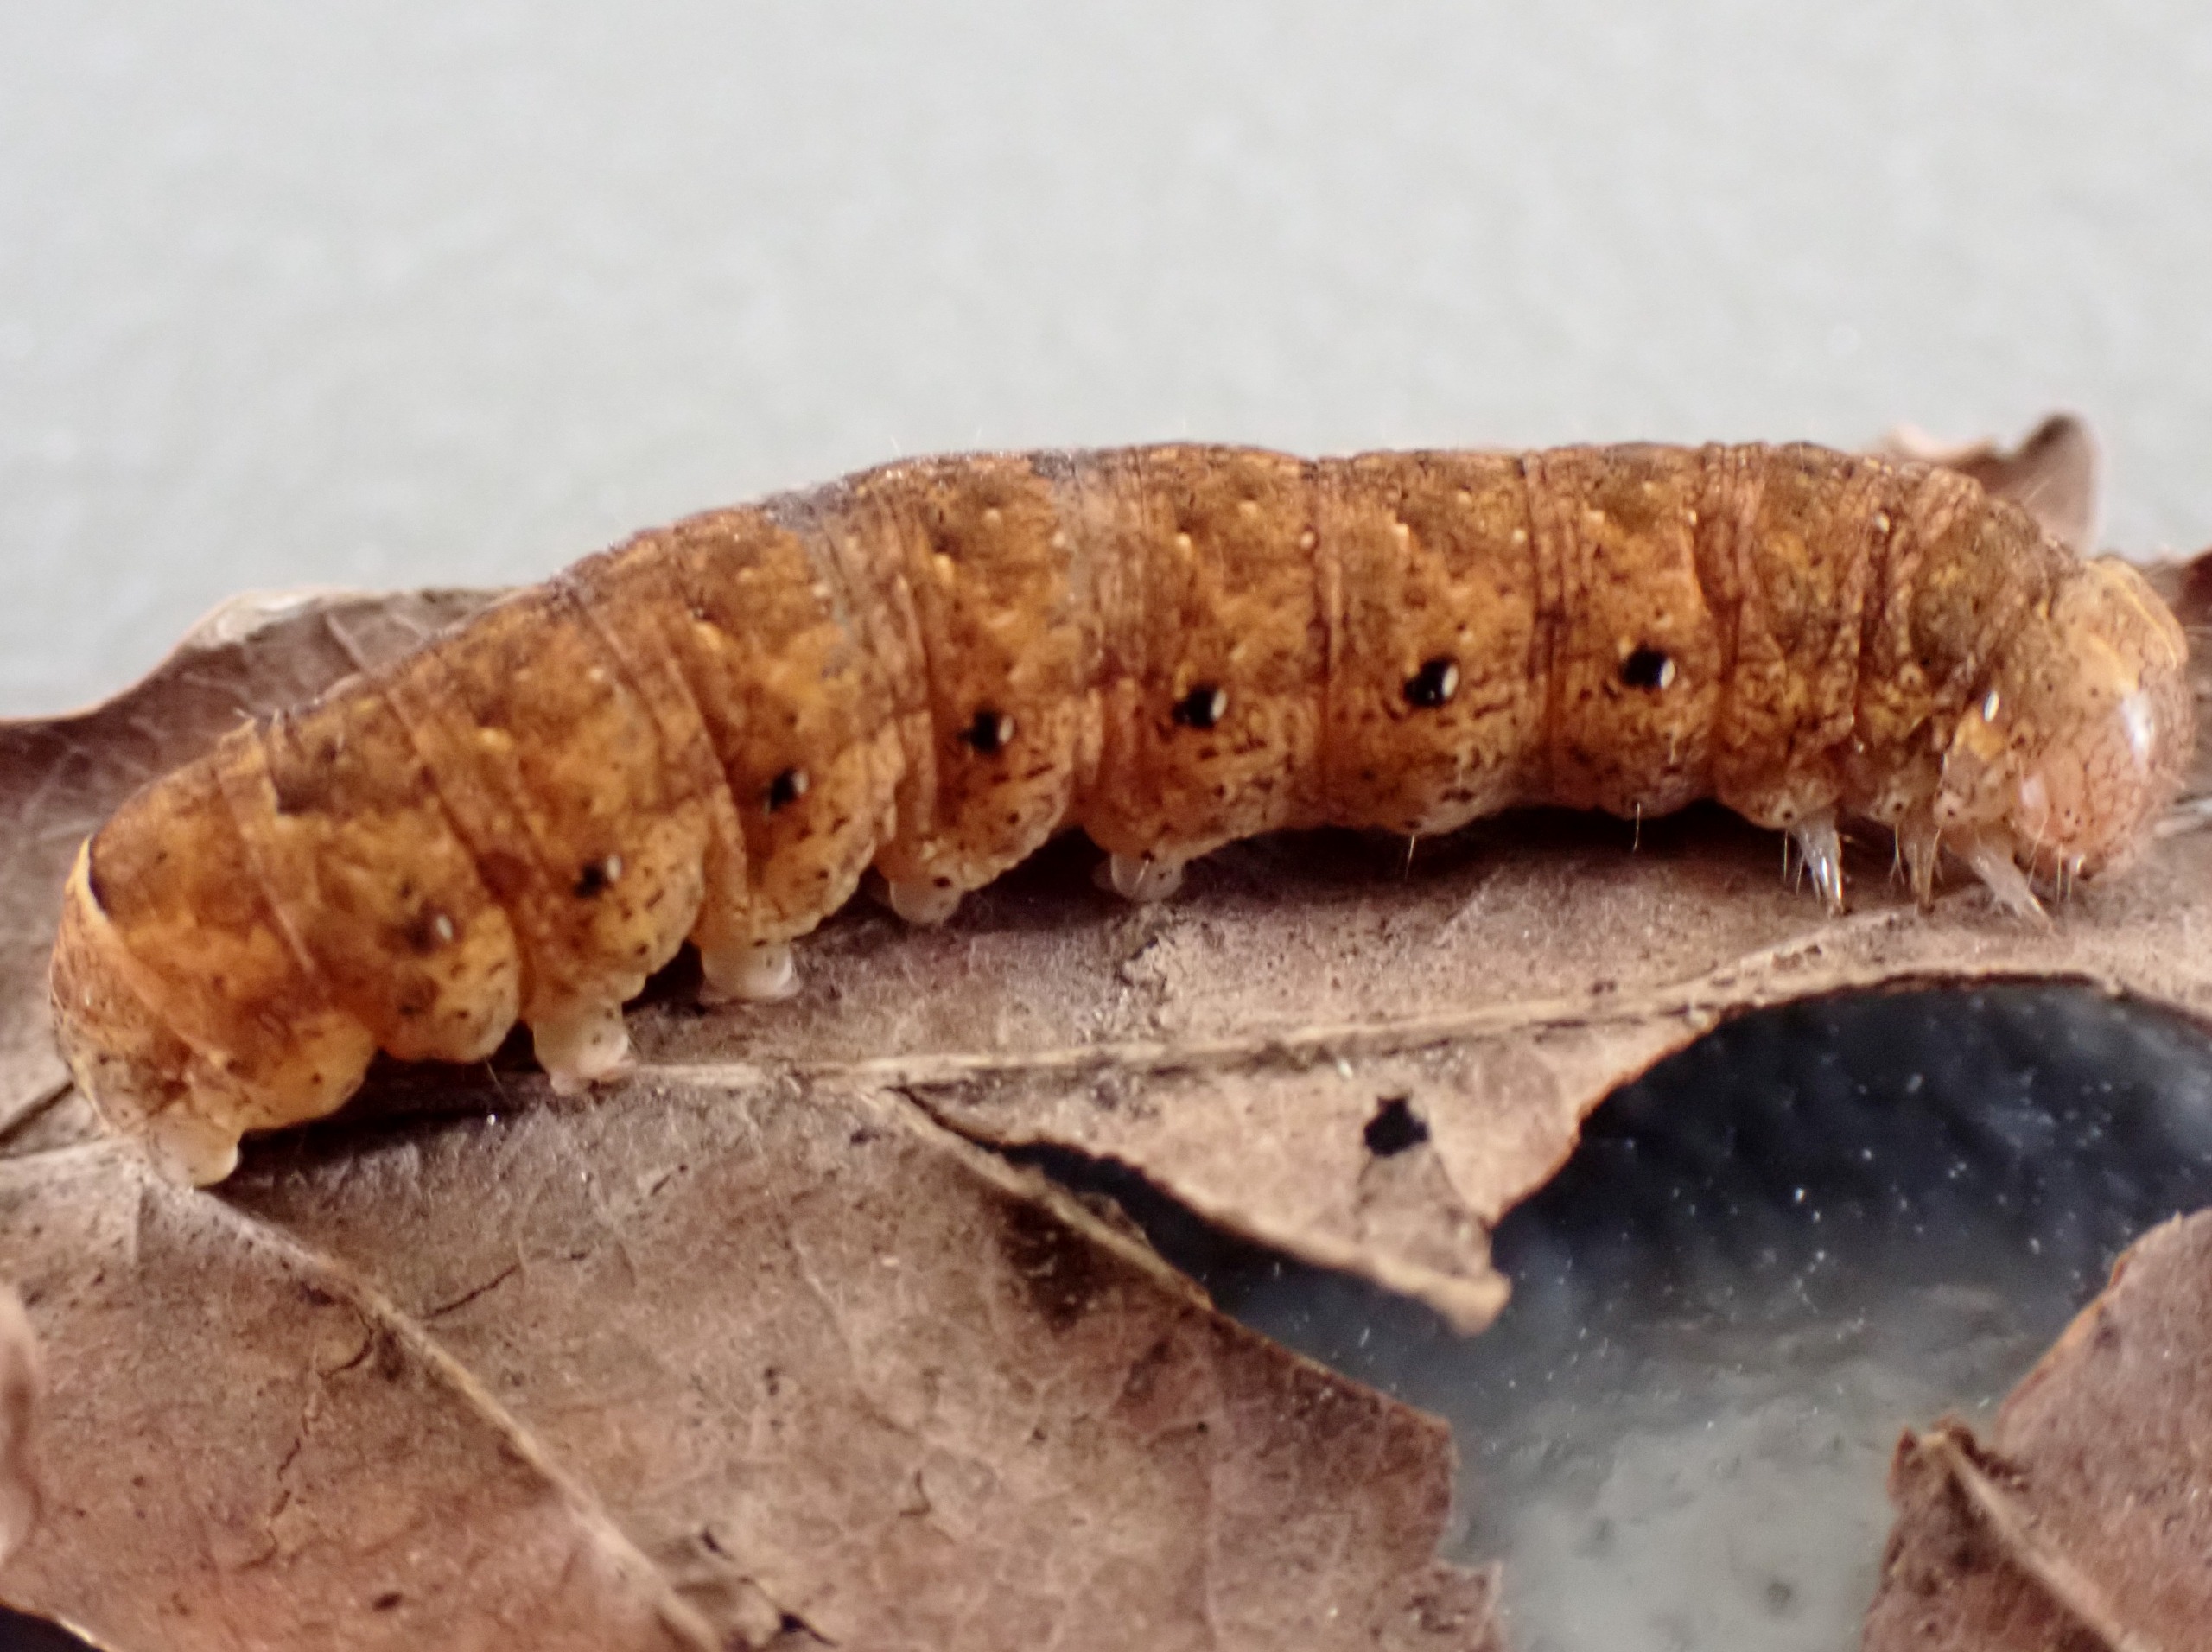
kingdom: Animalia
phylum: Arthropoda
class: Insecta
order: Lepidoptera
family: Noctuidae
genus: Noctua
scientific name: Noctua fimbriata
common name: Gul båndugle
